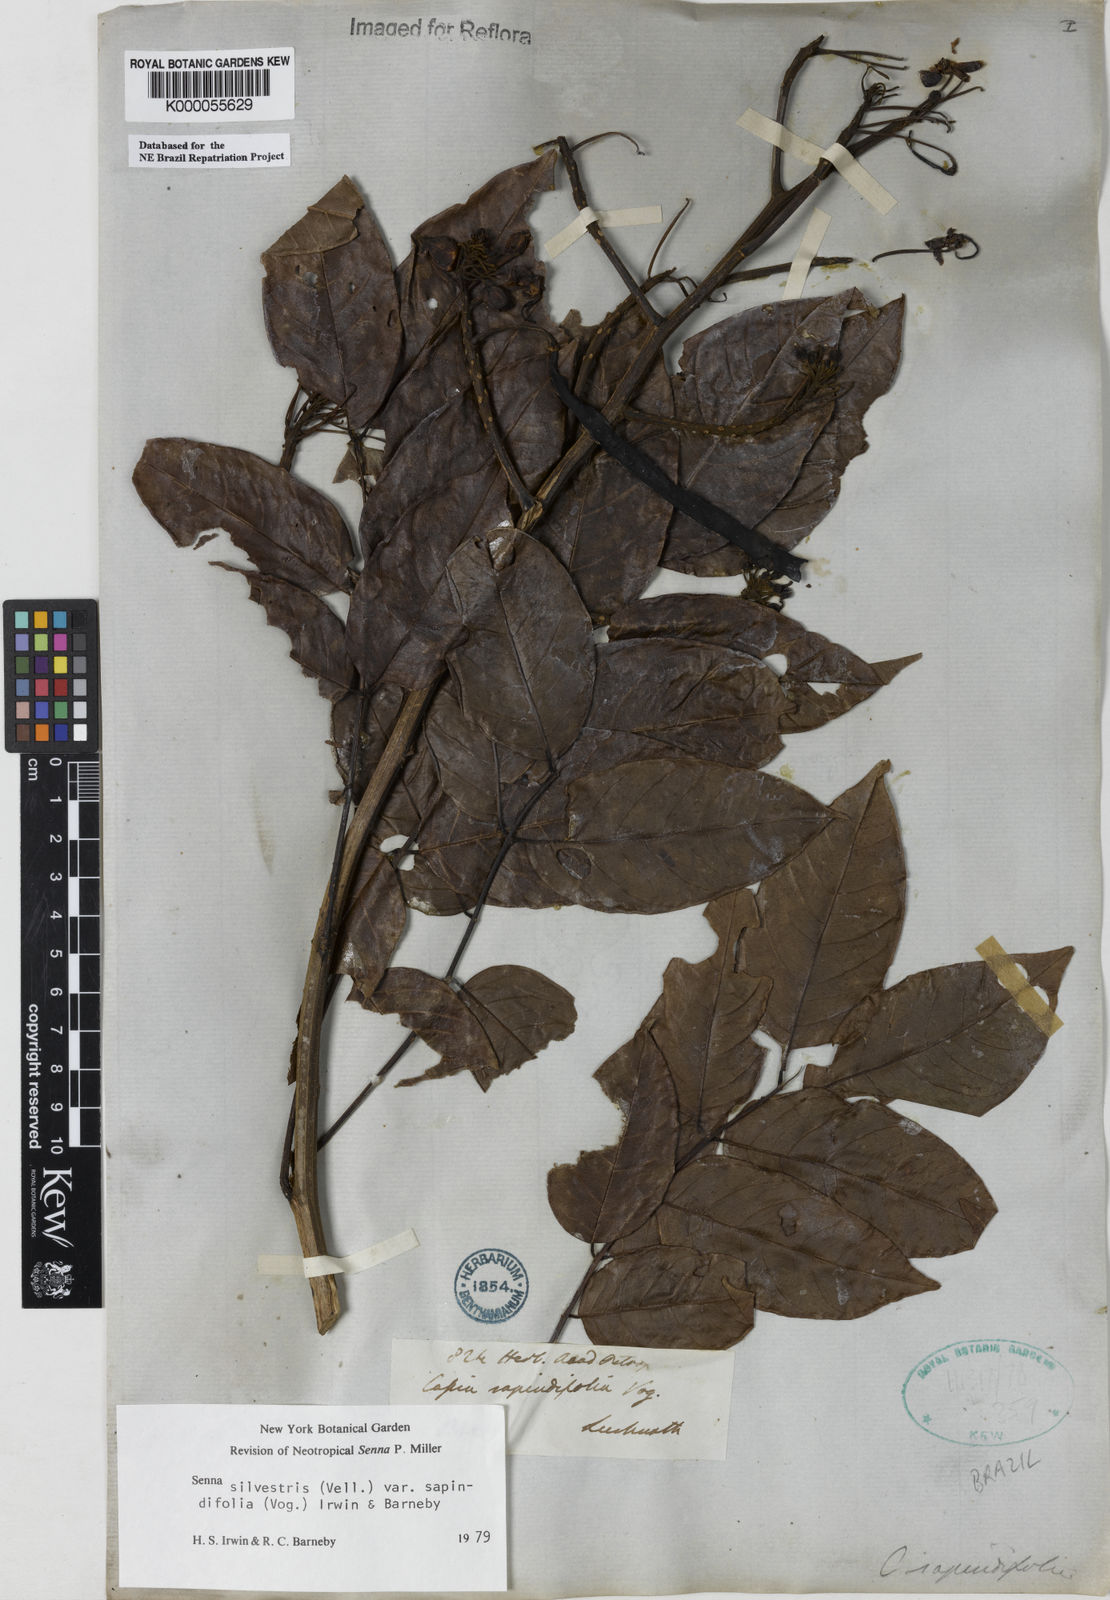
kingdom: Plantae
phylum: Tracheophyta
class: Magnoliopsida
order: Fabales
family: Fabaceae
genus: Senna
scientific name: Senna silvestris
